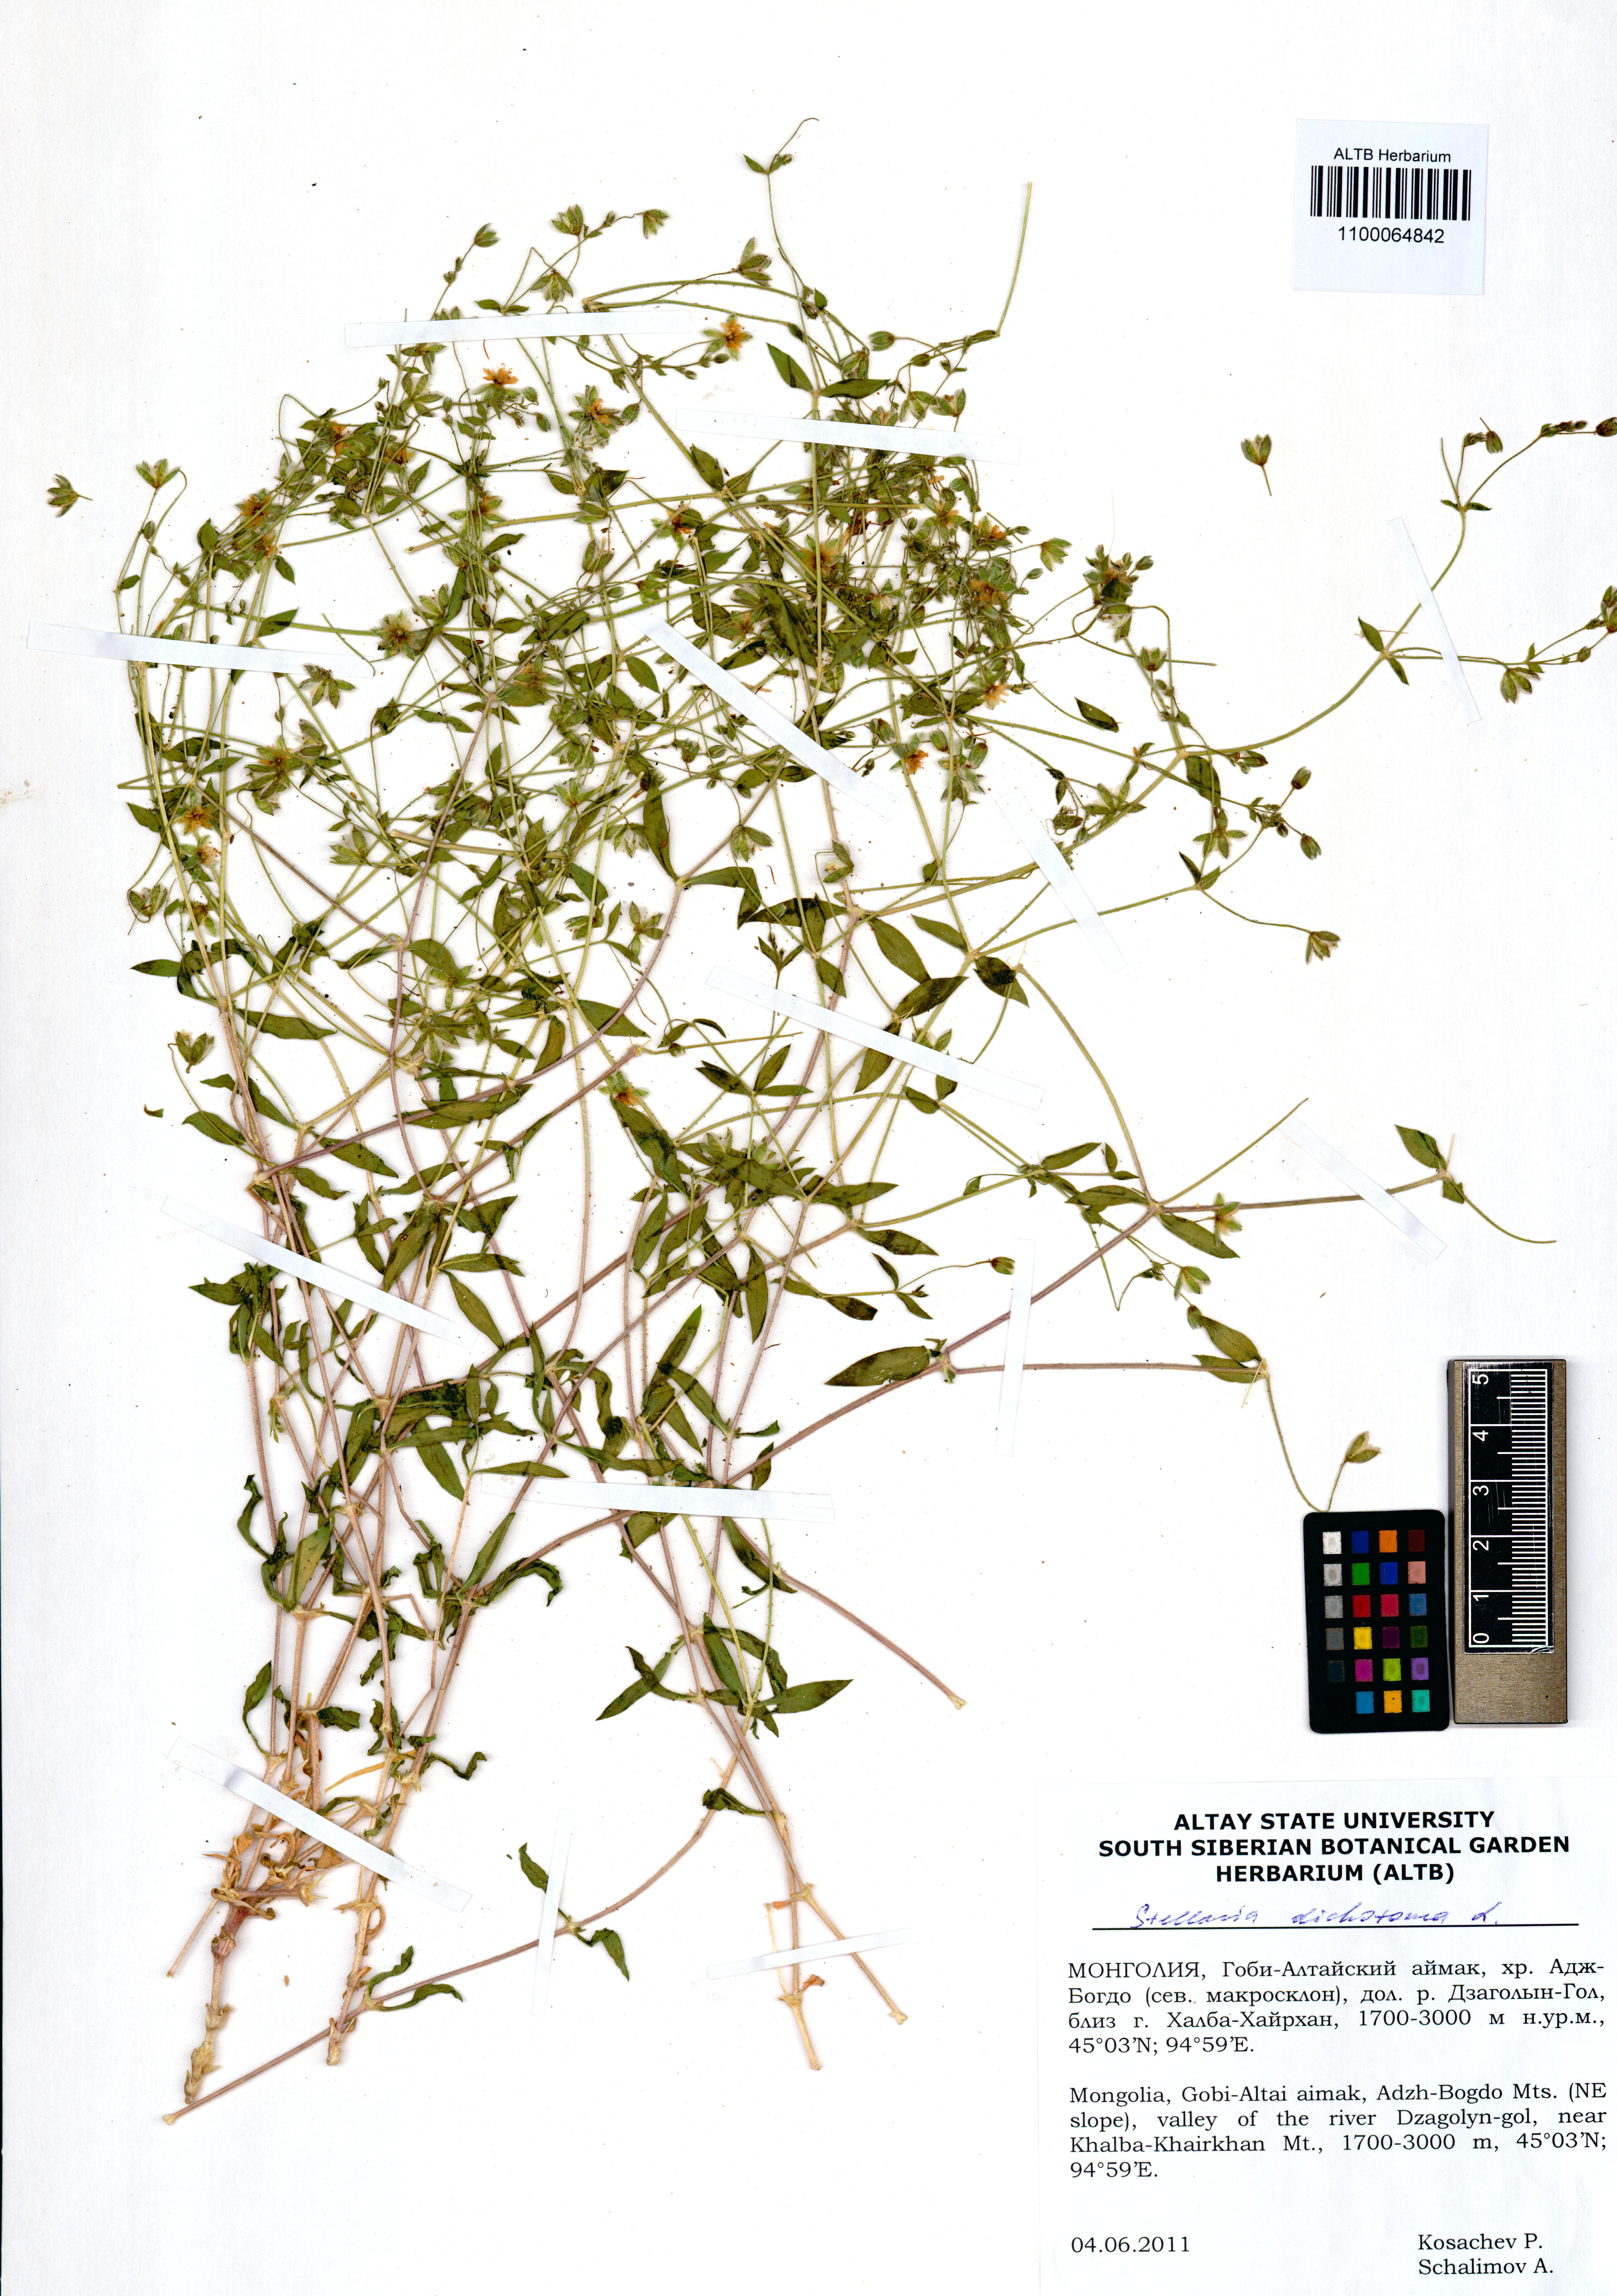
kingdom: Plantae
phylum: Tracheophyta
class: Magnoliopsida
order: Caryophyllales
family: Caryophyllaceae
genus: Mesostemma
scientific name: Mesostemma dichotomum
